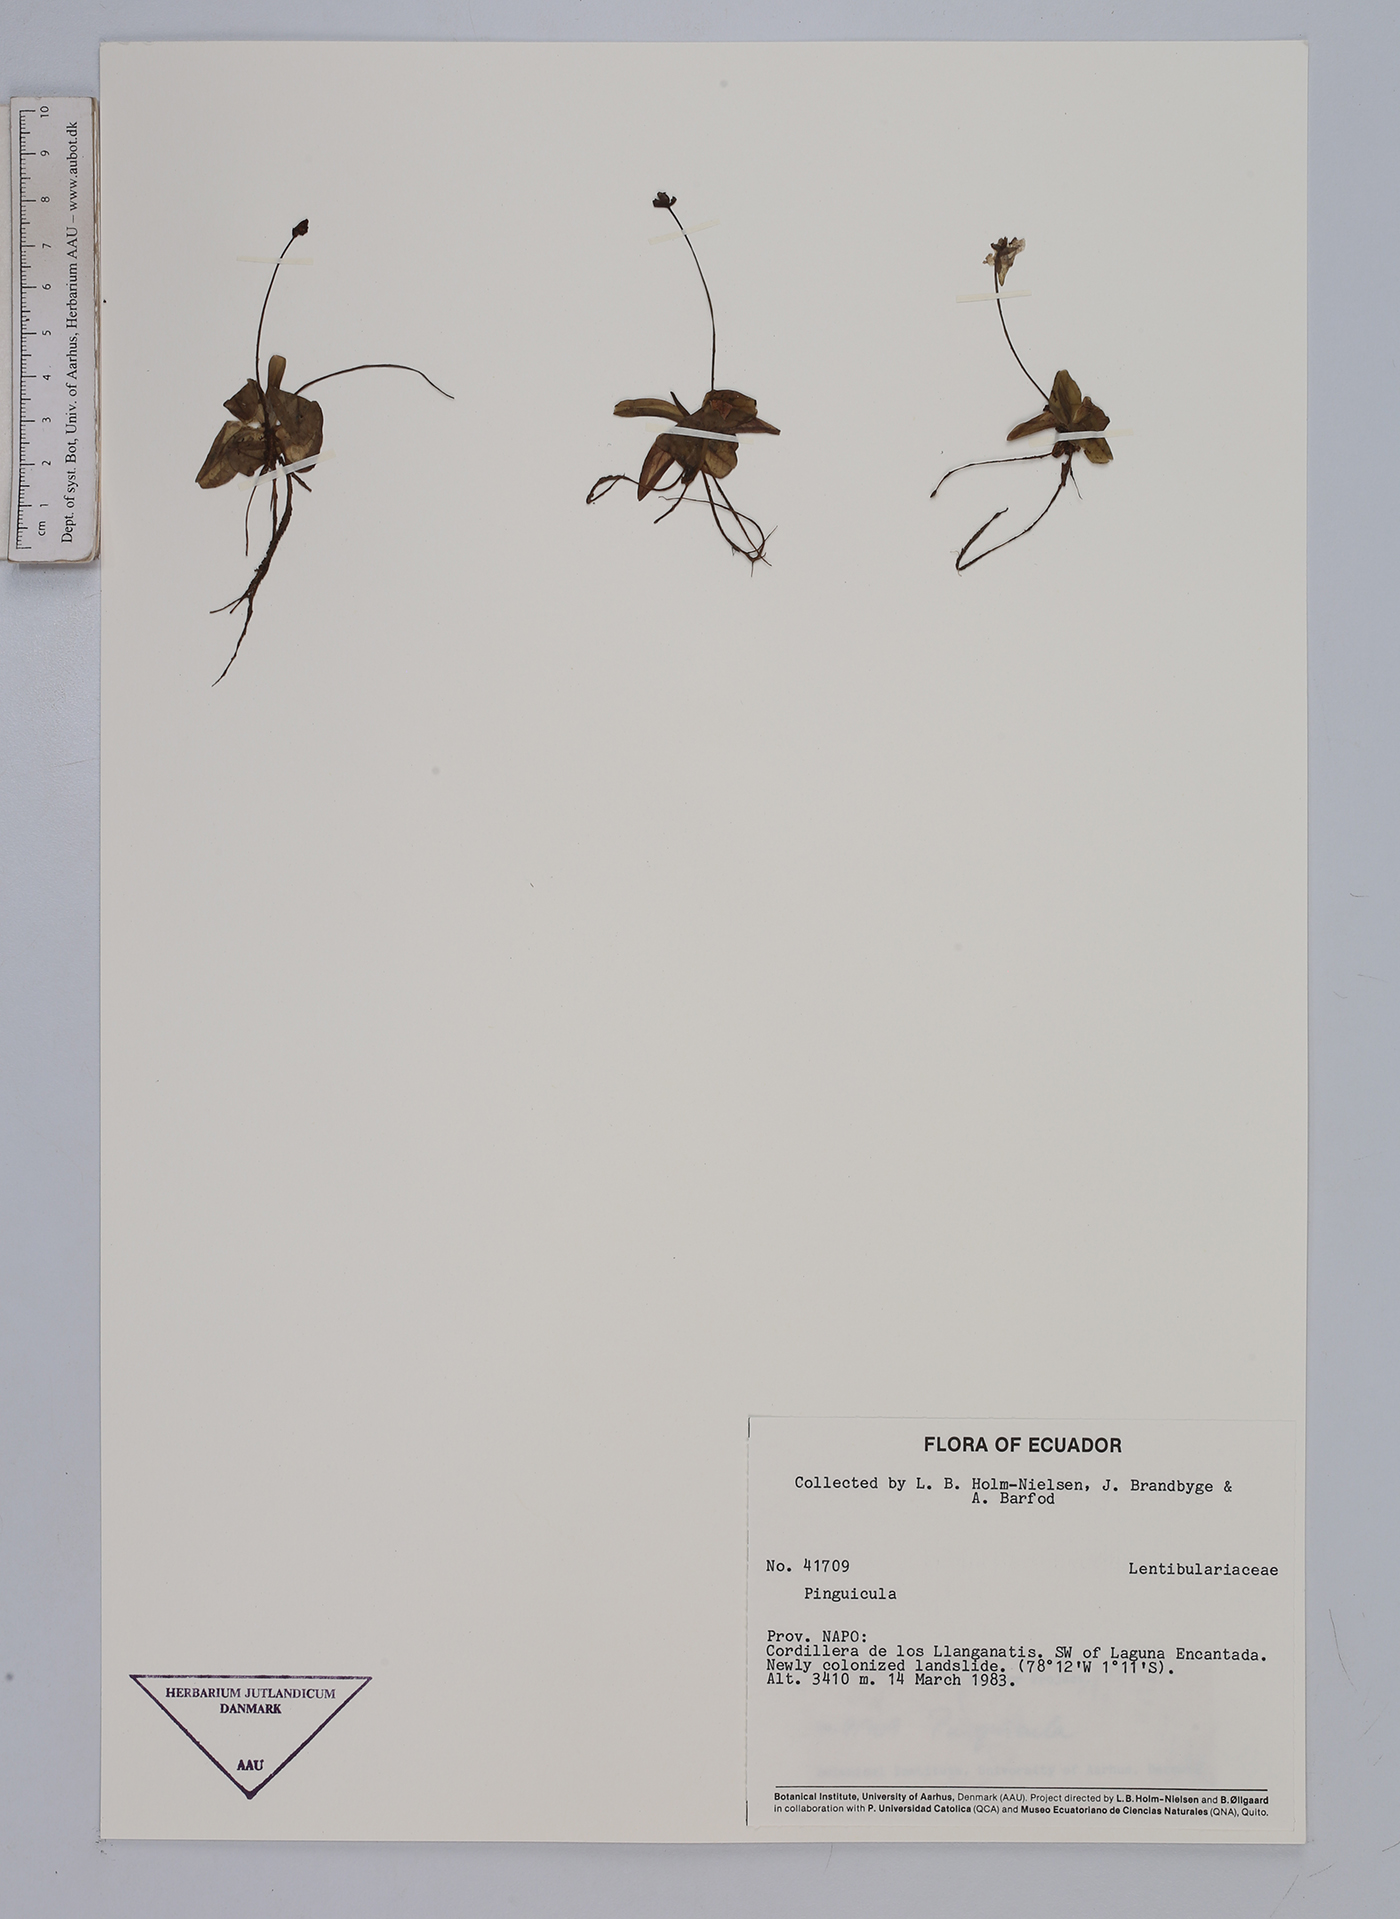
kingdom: Plantae
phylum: Tracheophyta
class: Magnoliopsida
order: Lamiales
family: Lentibulariaceae
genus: Pinguicula
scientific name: Pinguicula
